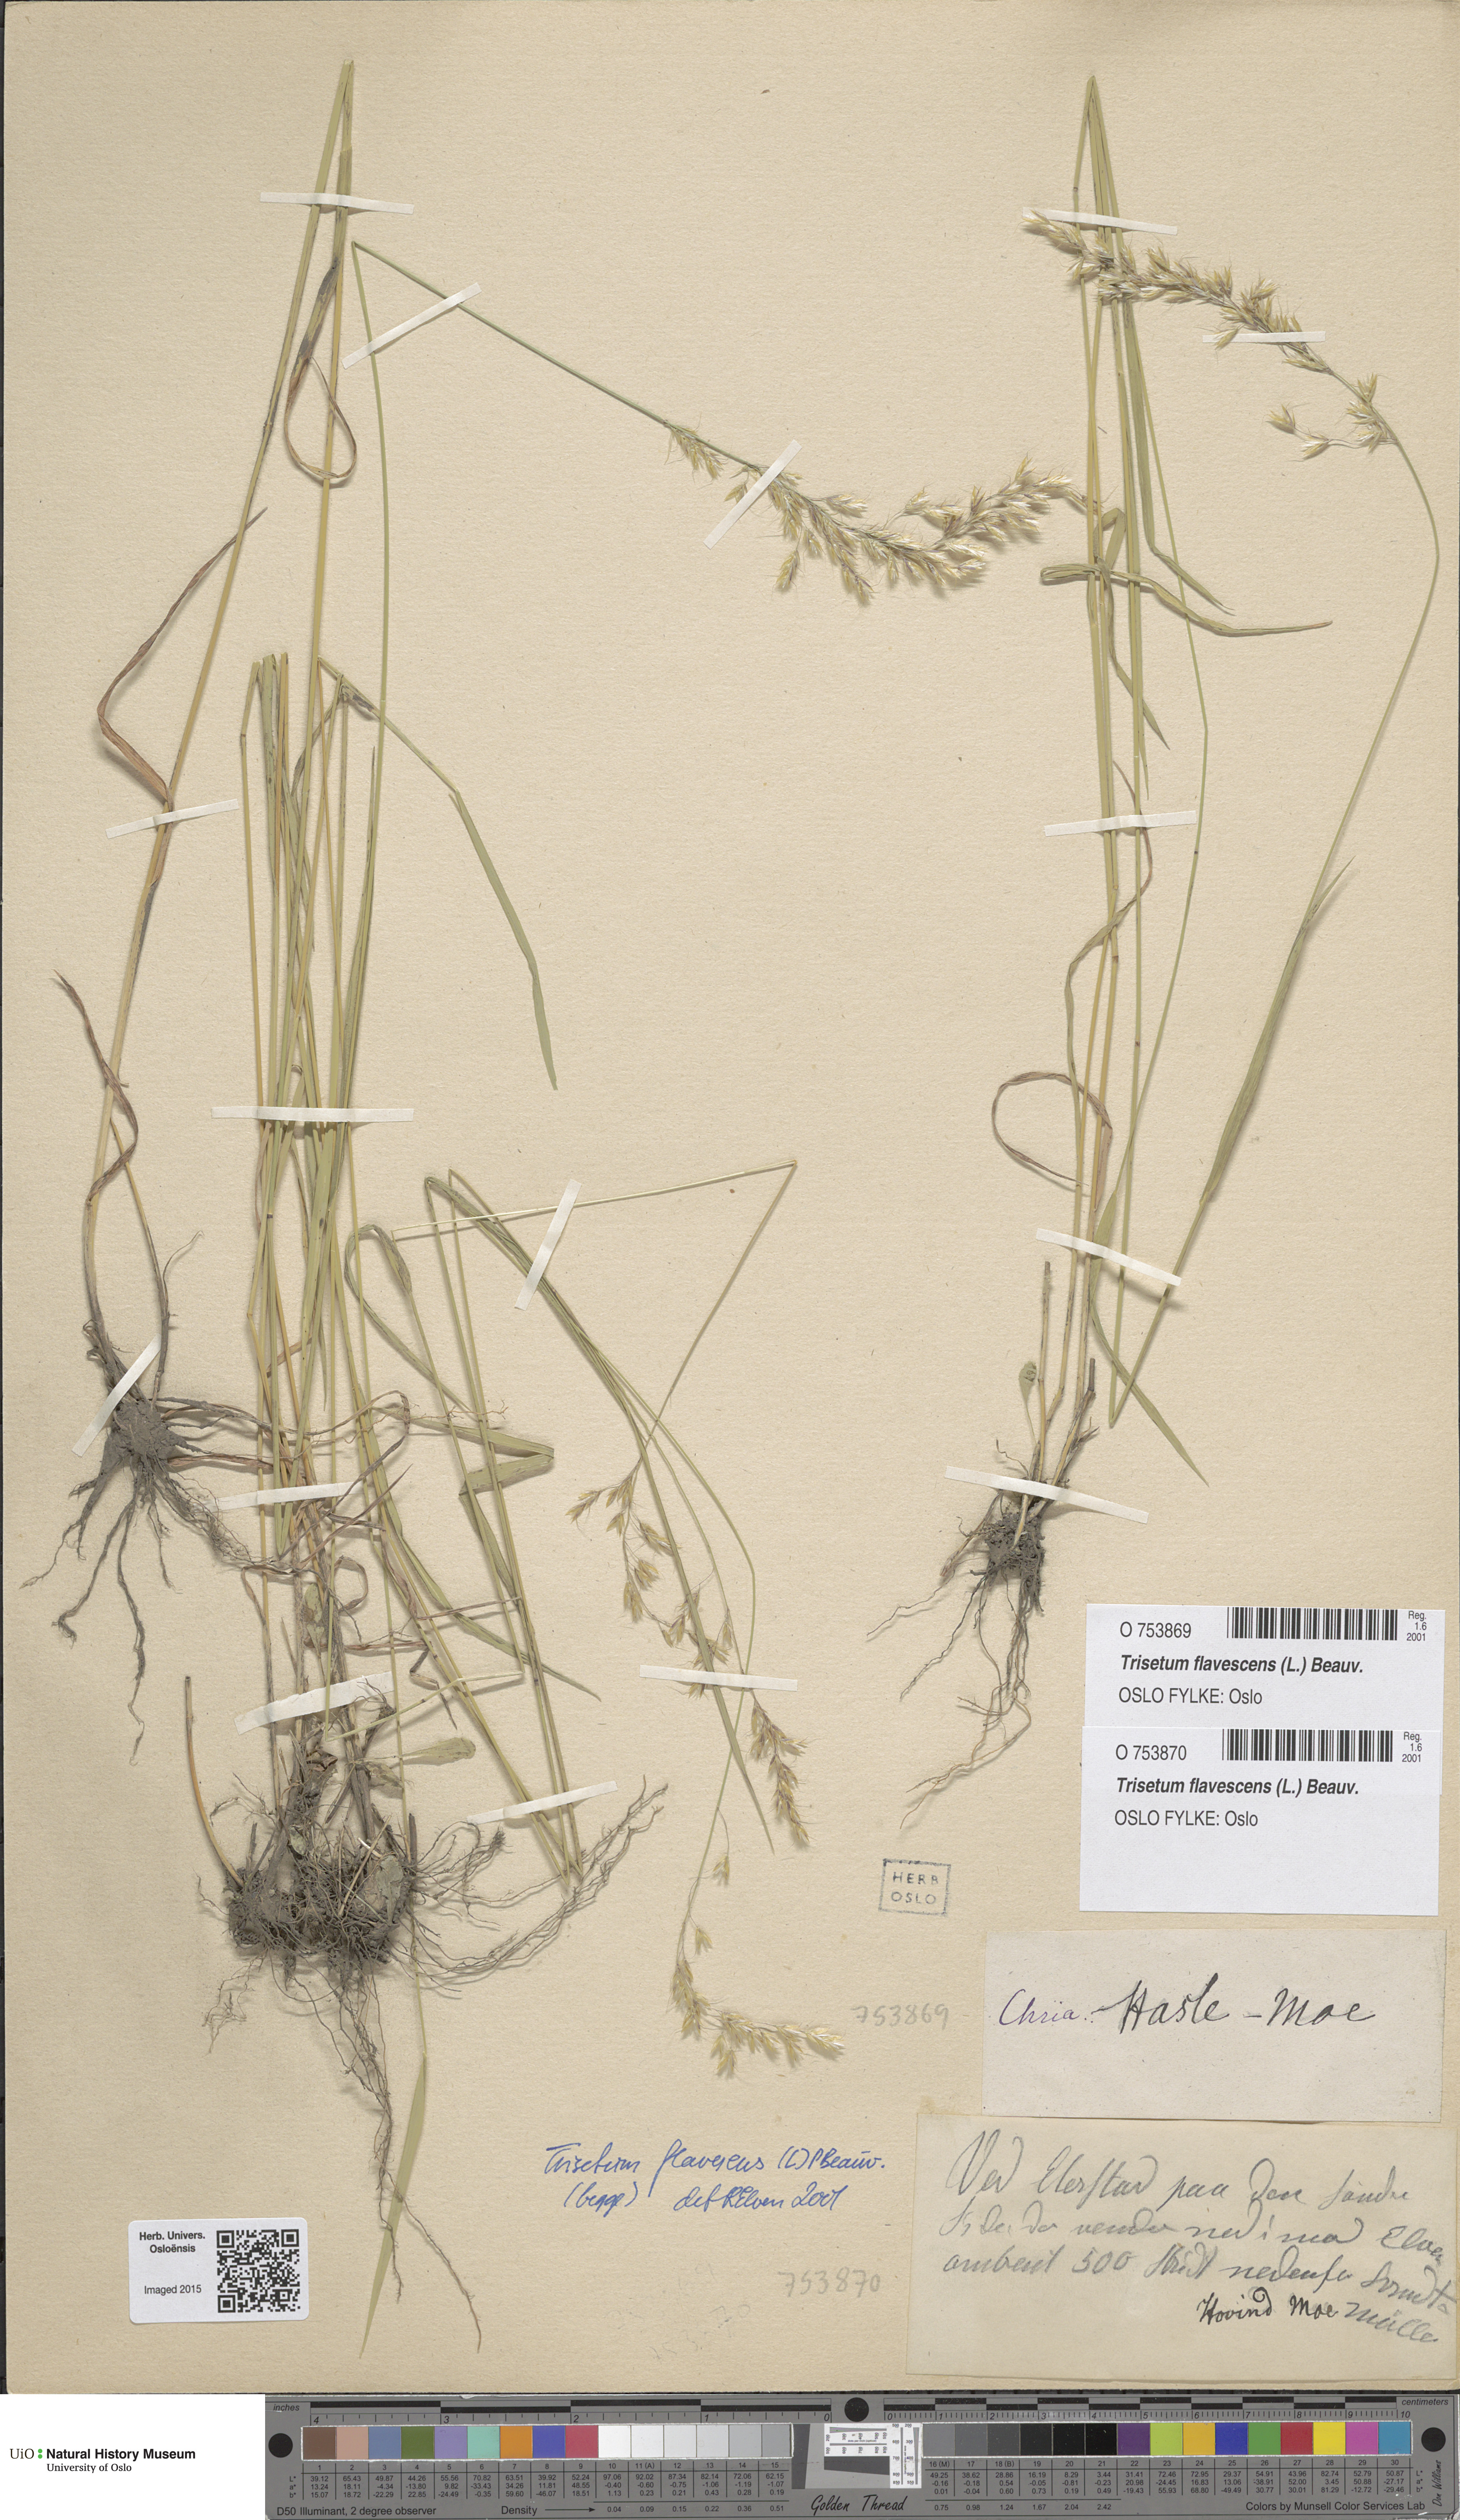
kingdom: Plantae
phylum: Tracheophyta
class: Liliopsida
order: Poales
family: Poaceae
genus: Trisetum
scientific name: Trisetum flavescens
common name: Yellow oat-grass
